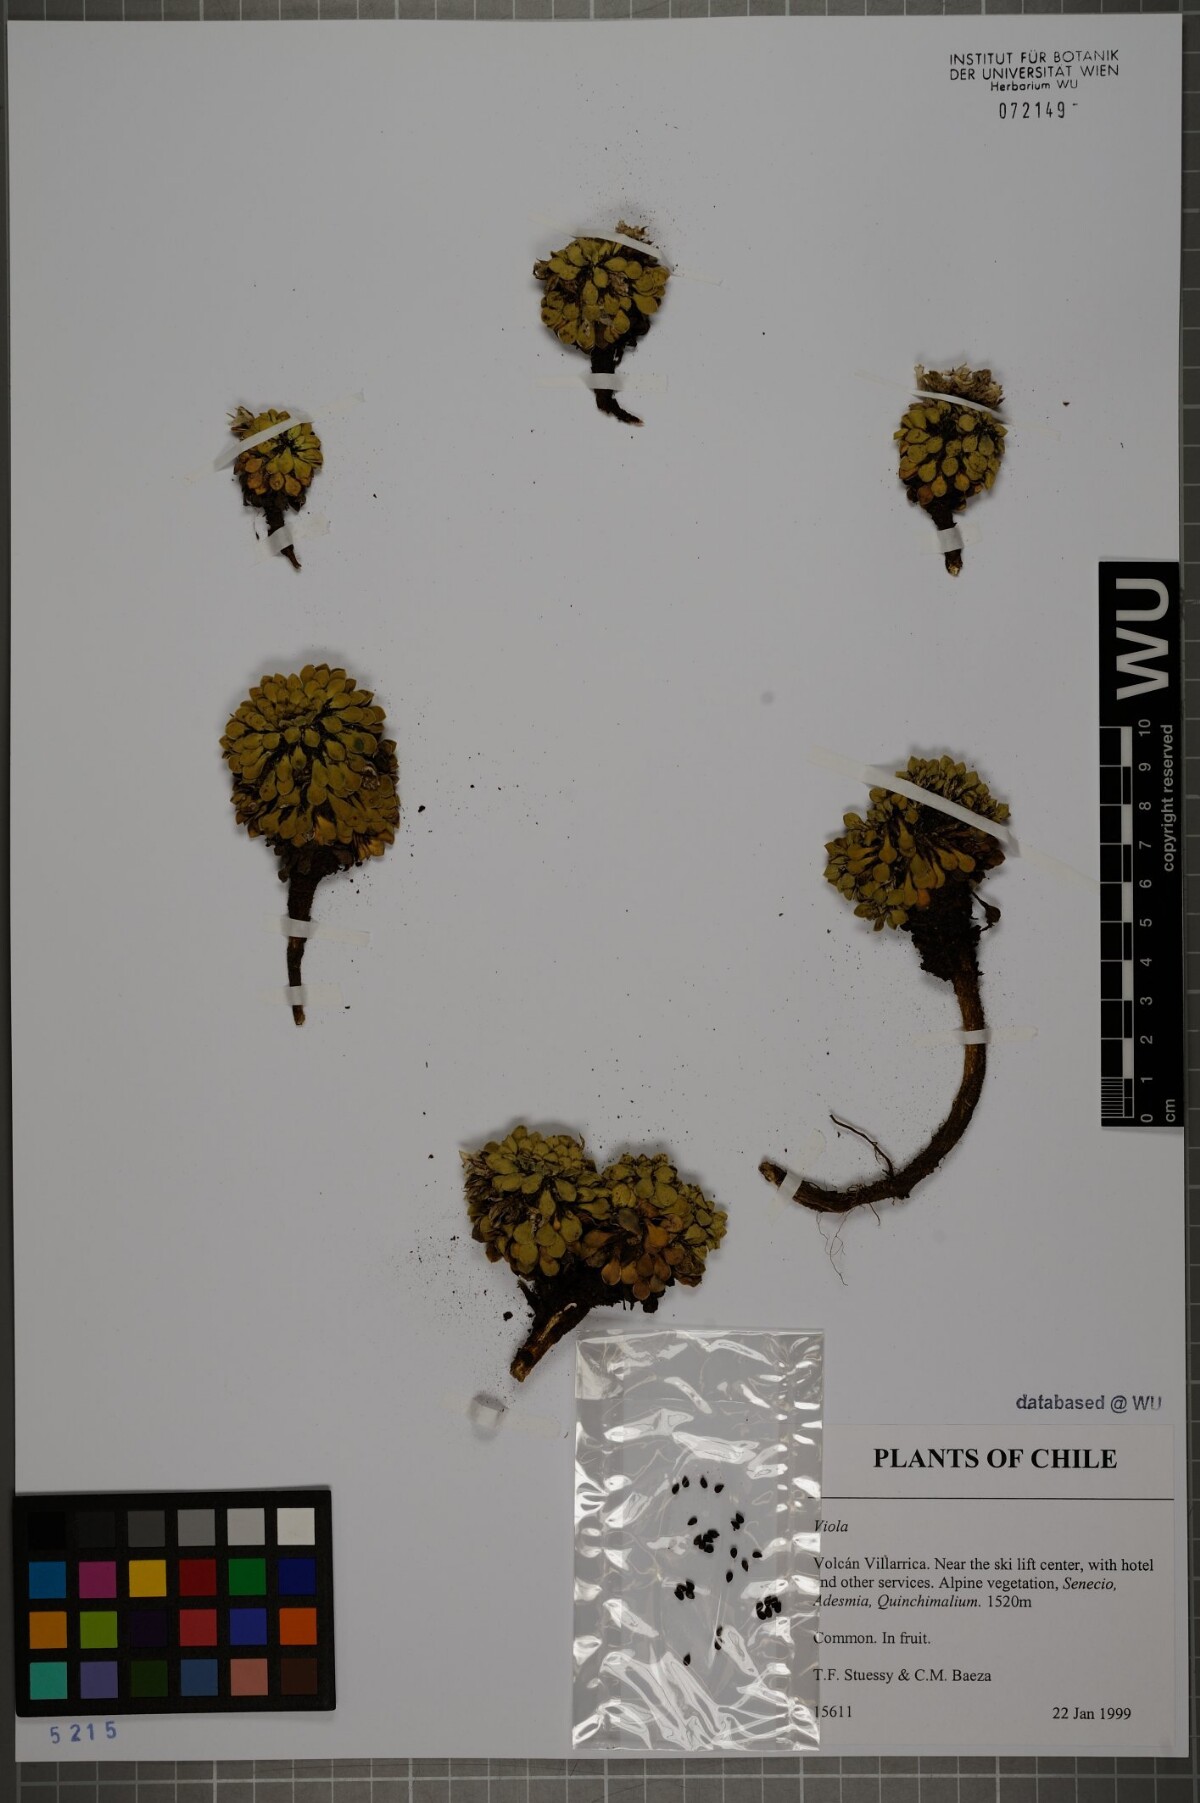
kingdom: Plantae
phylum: Tracheophyta
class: Magnoliopsida
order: Malpighiales
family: Violaceae
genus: Viola
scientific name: Viola
